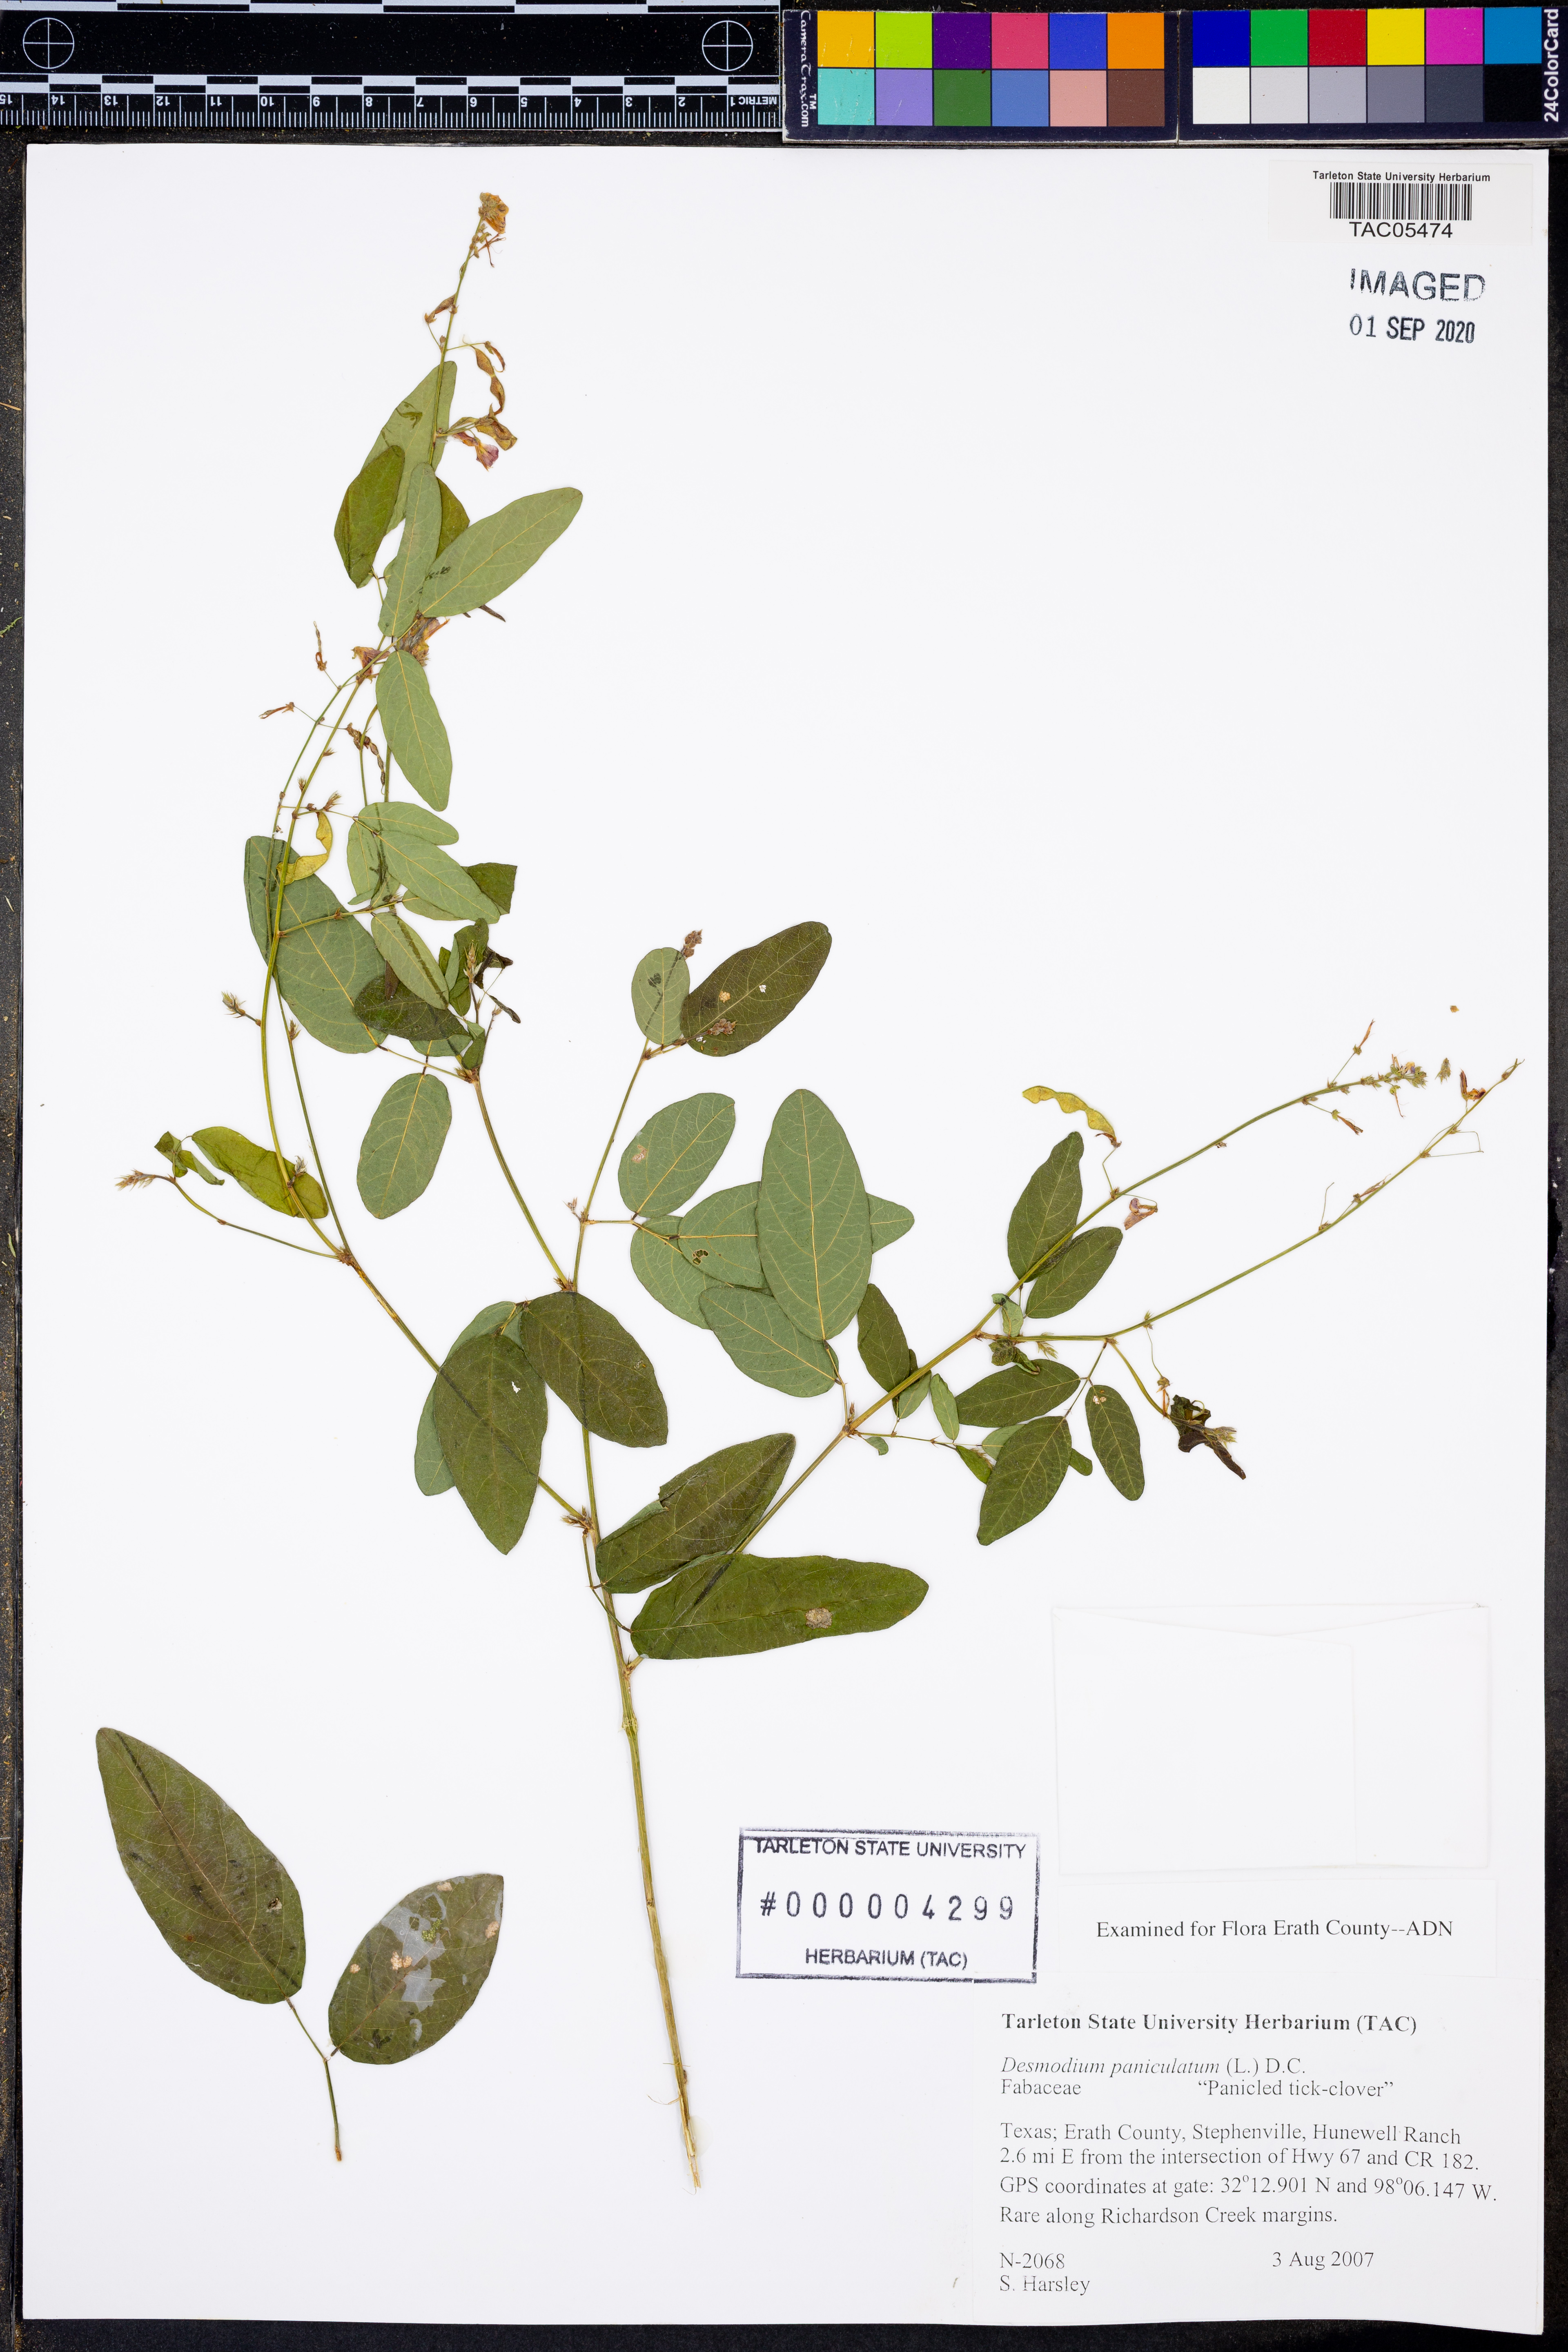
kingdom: Plantae
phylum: Tracheophyta
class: Magnoliopsida
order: Fabales
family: Fabaceae
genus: Desmodium
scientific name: Desmodium paniculatum
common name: Panicled tick-clover
